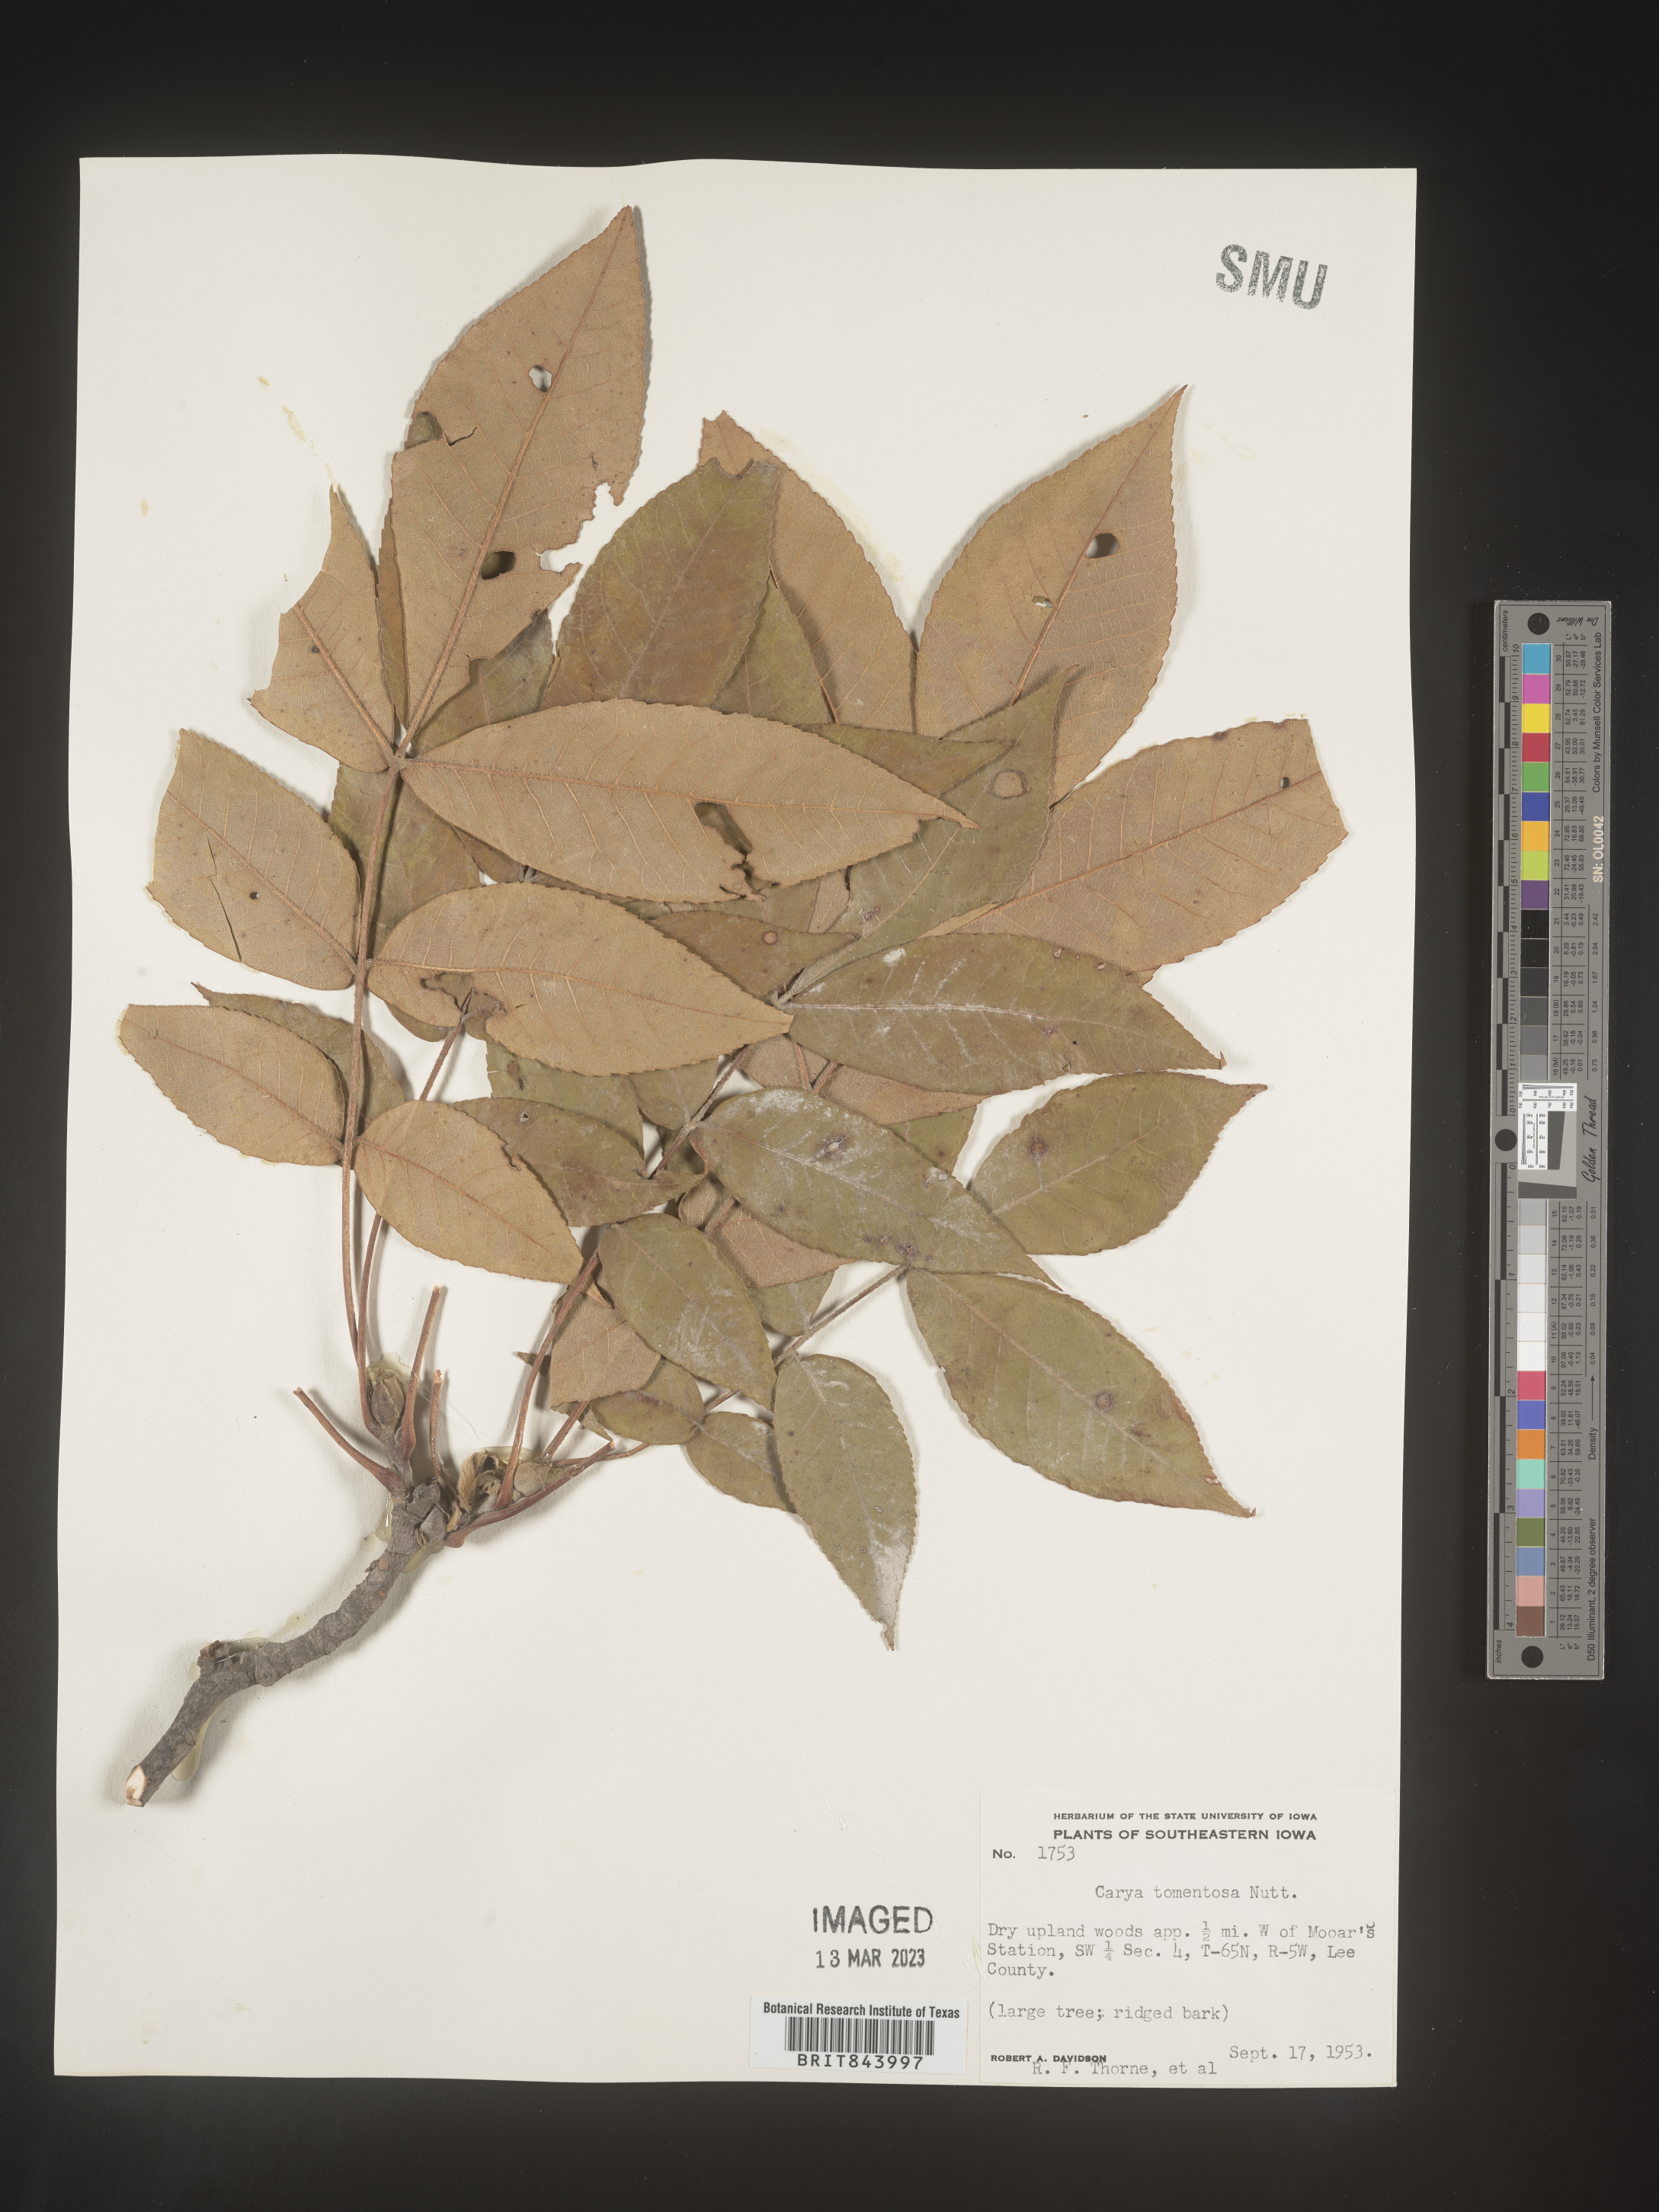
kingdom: Plantae
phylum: Tracheophyta
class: Magnoliopsida
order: Fagales
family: Juglandaceae
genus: Carya
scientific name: Carya alba
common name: Mockernut hickory
